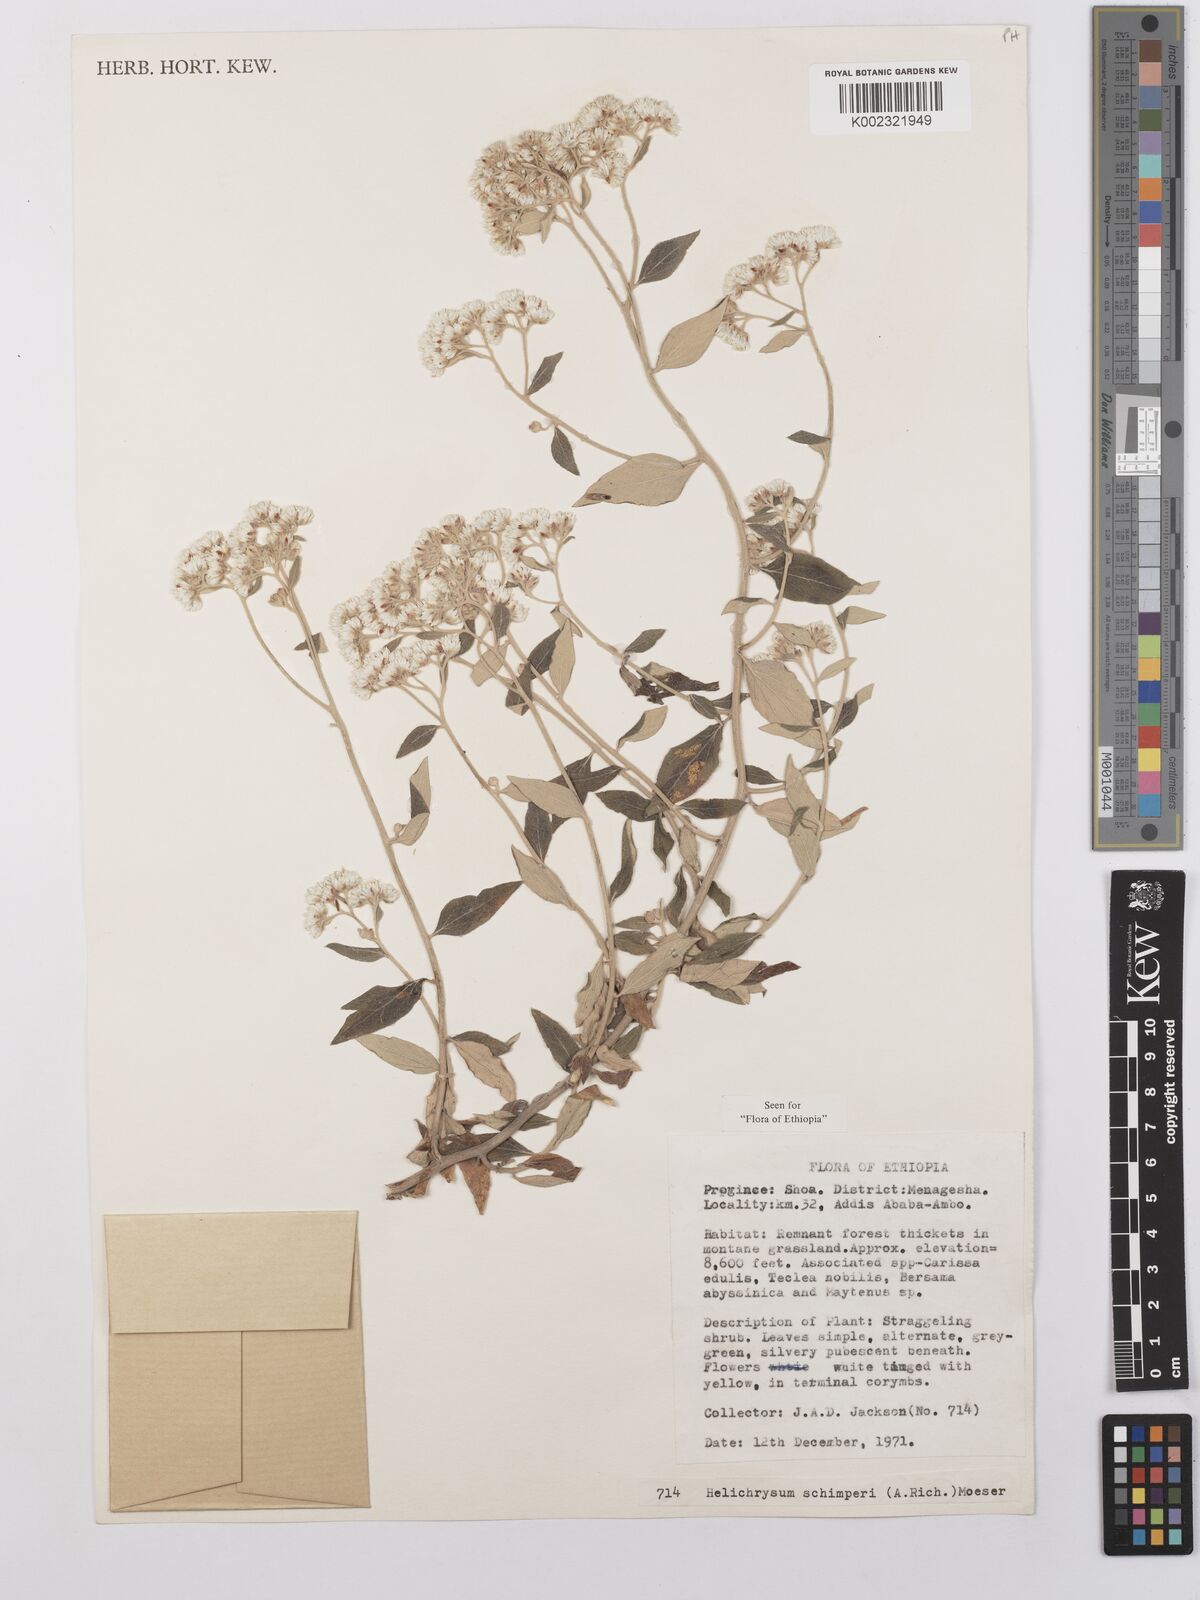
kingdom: Plantae
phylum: Tracheophyta
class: Magnoliopsida
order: Asterales
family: Asteraceae
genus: Helichrysum
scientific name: Helichrysum schimperi
